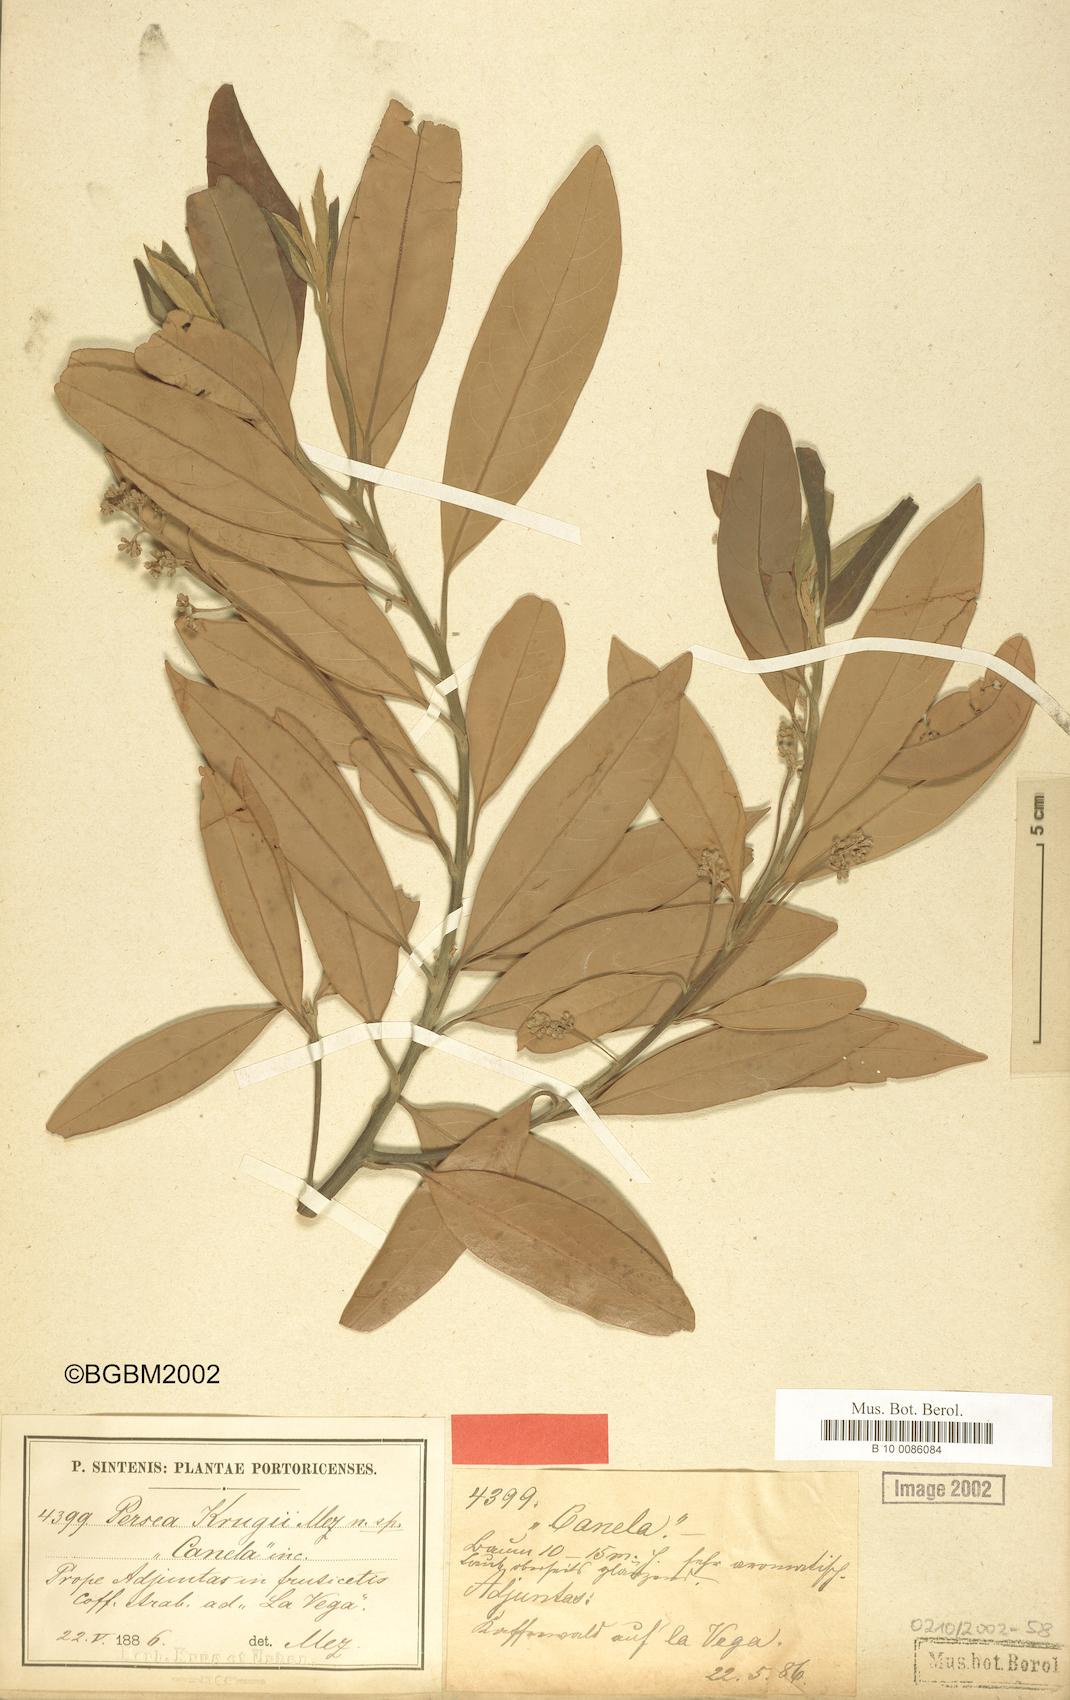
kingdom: Plantae
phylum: Tracheophyta
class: Magnoliopsida
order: Laurales
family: Lauraceae
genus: Persea
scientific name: Persea krugii
